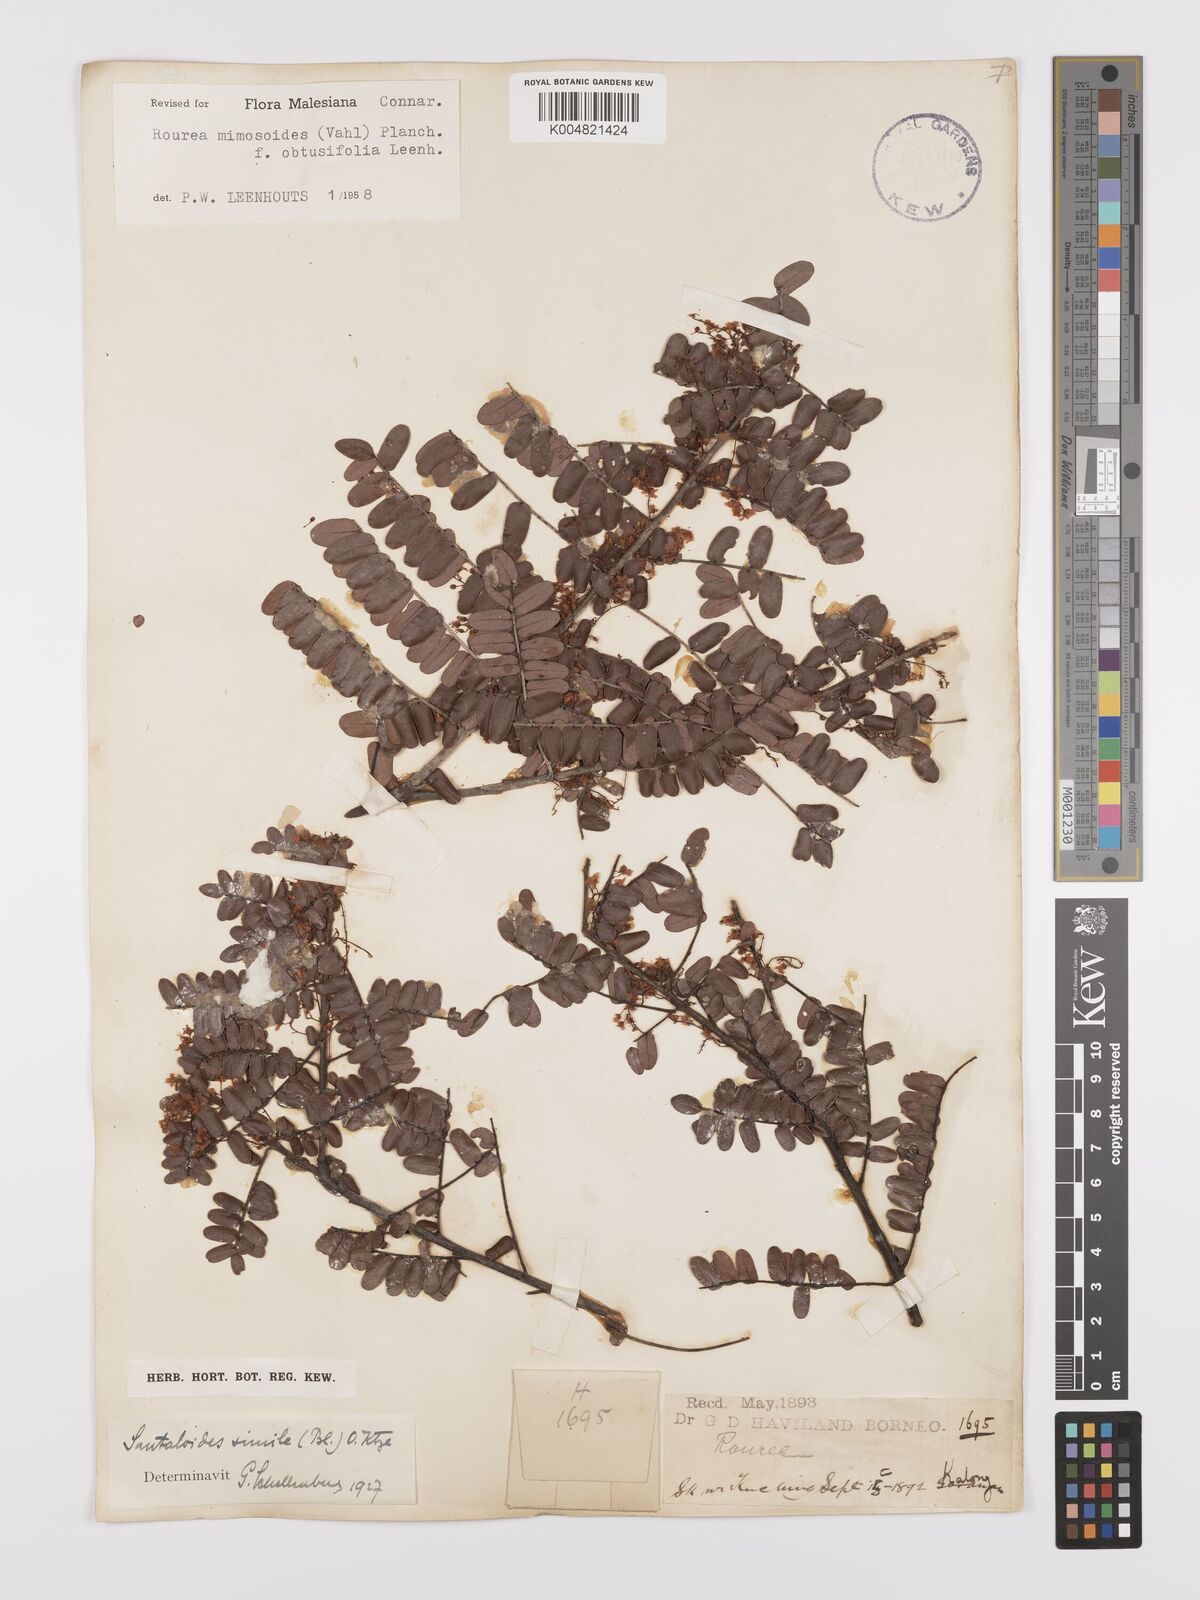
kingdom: Plantae
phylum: Tracheophyta
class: Magnoliopsida
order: Oxalidales
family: Connaraceae
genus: Rourea
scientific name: Rourea mimosoides
